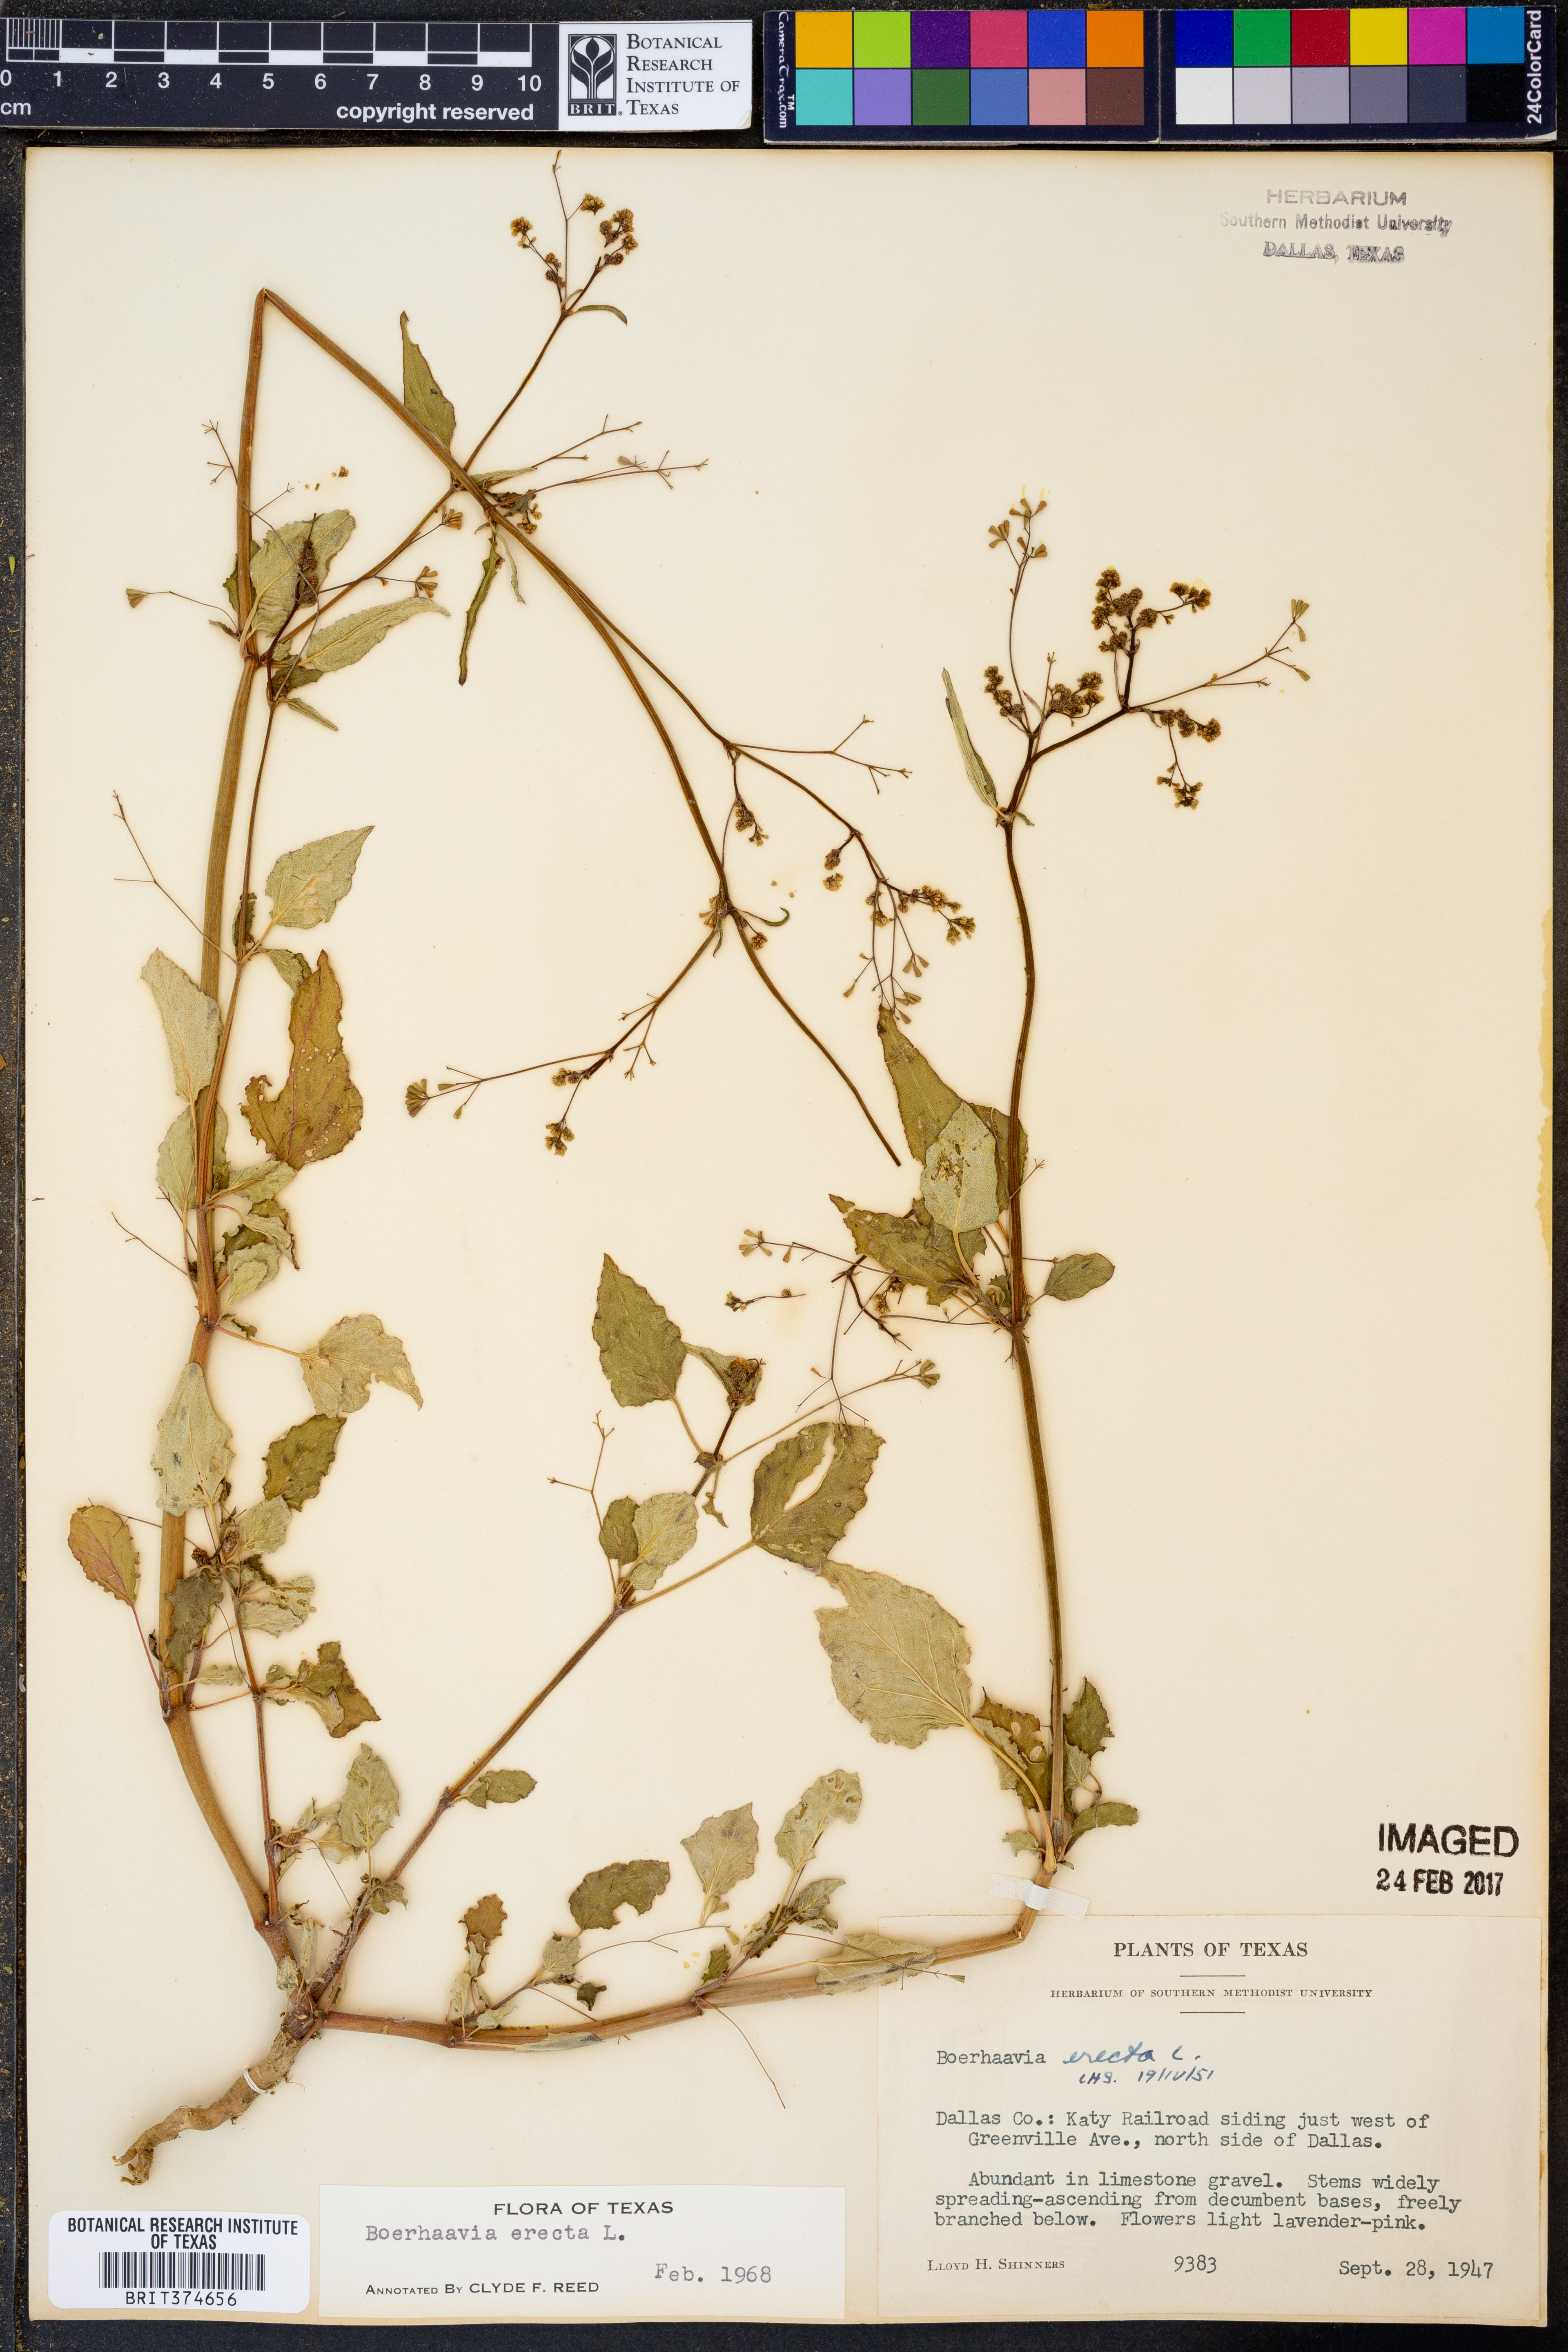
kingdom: Plantae
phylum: Tracheophyta
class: Magnoliopsida
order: Caryophyllales
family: Nyctaginaceae
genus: Boerhavia
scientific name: Boerhavia erecta
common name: Erect spiderling
